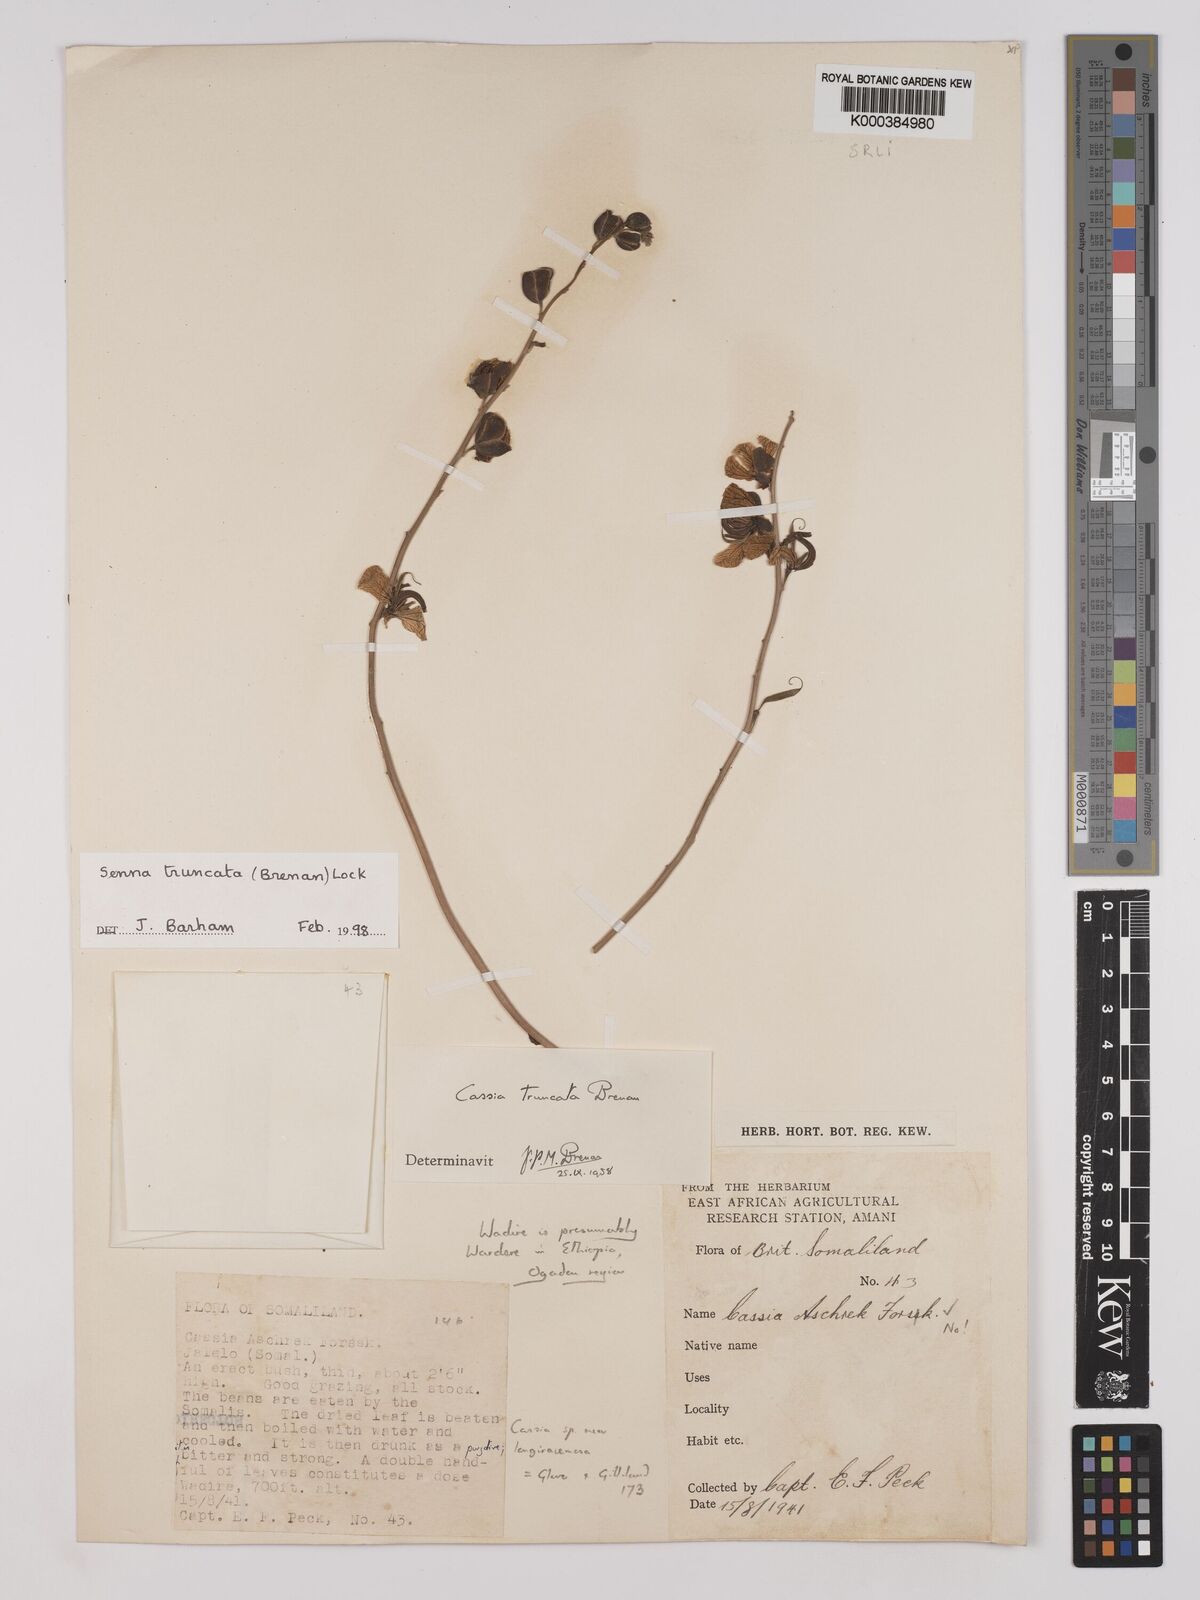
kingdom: Plantae
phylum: Tracheophyta
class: Magnoliopsida
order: Fabales
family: Fabaceae
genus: Senna
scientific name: Senna truncata
